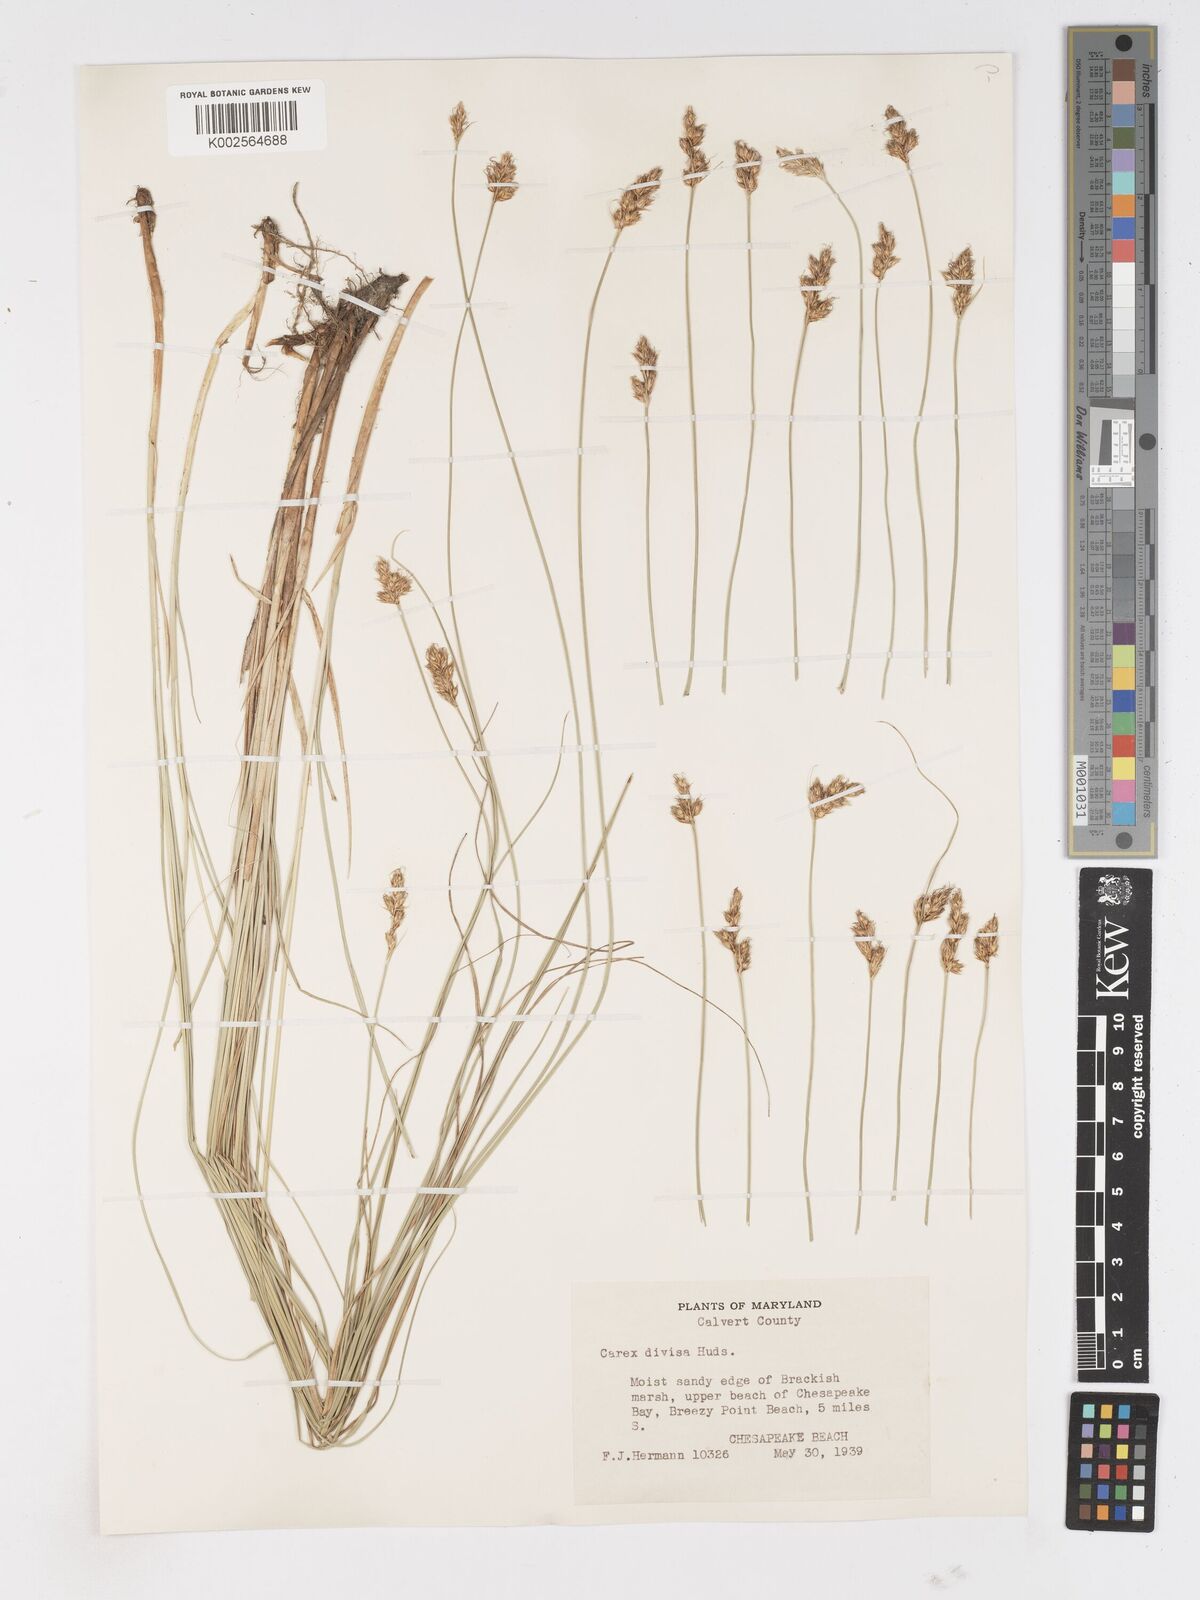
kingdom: Plantae
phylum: Tracheophyta
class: Liliopsida
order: Poales
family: Cyperaceae
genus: Carex
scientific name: Carex divisa
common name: Divided sedge
